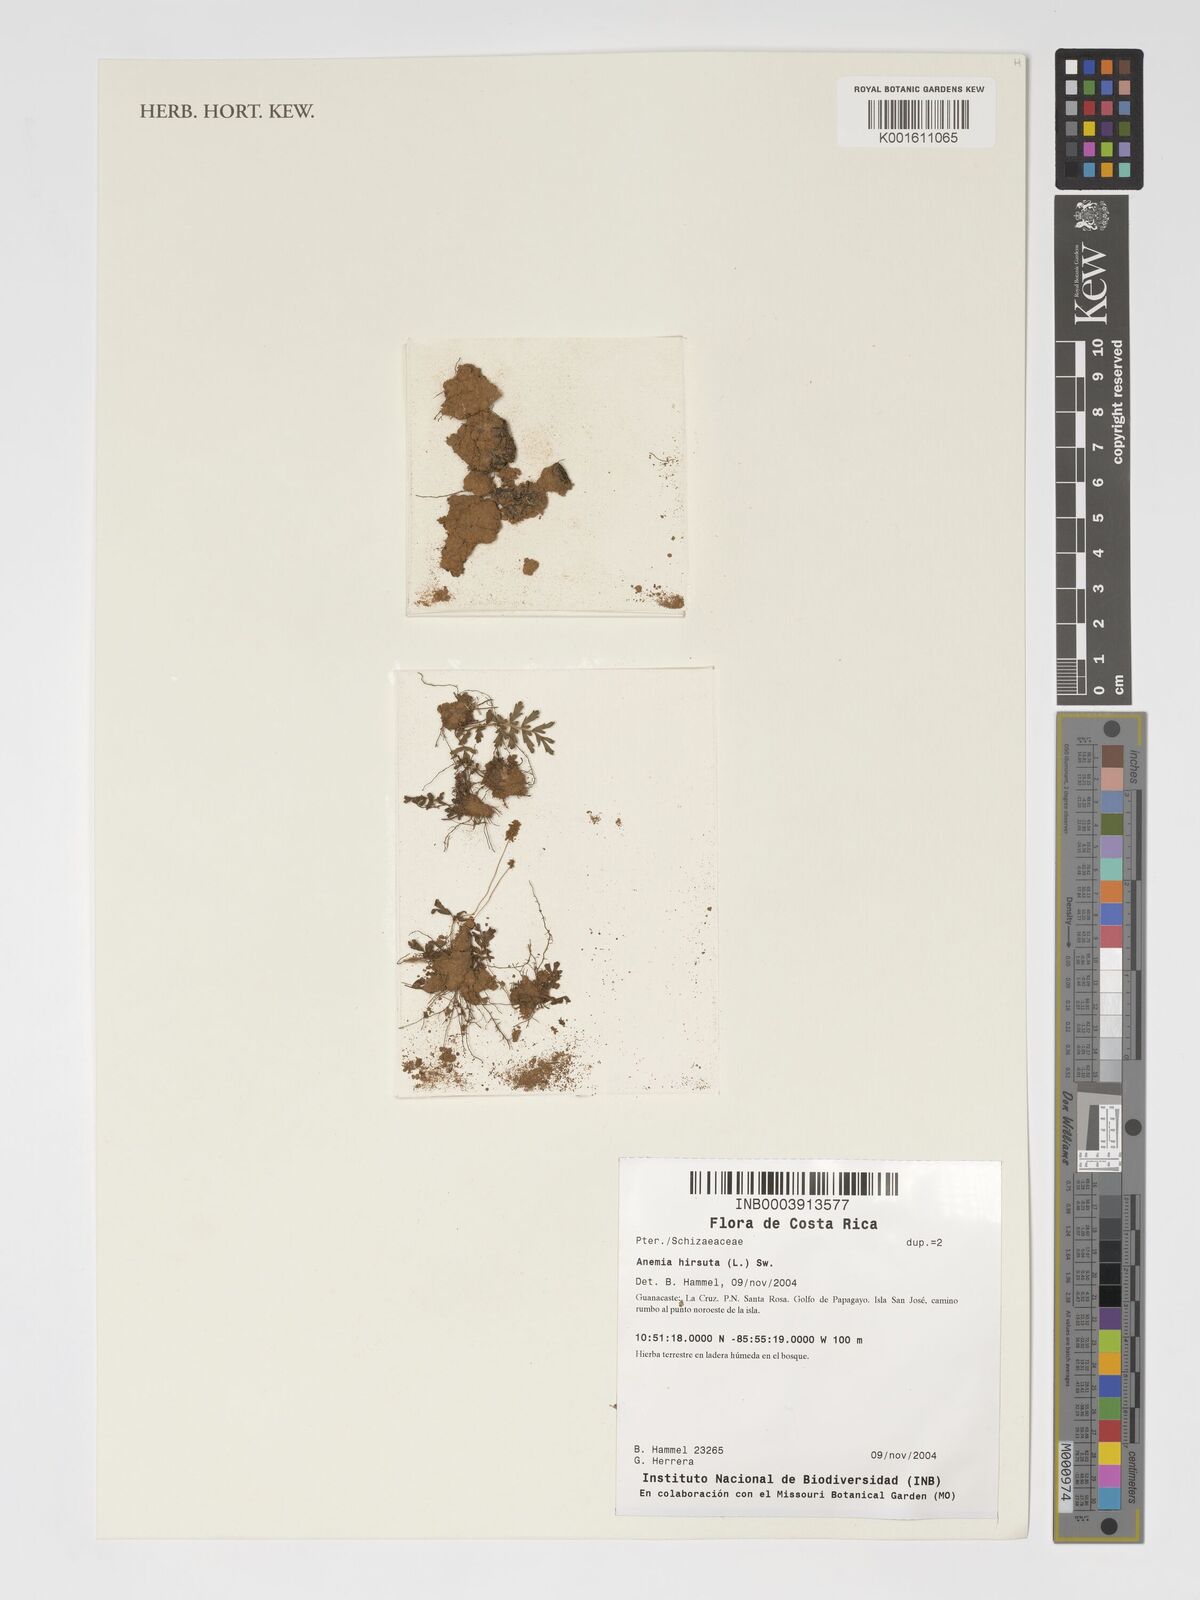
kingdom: Plantae
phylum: Tracheophyta
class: Polypodiopsida
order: Schizaeales
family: Anemiaceae
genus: Anemia
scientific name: Anemia hirsuta
